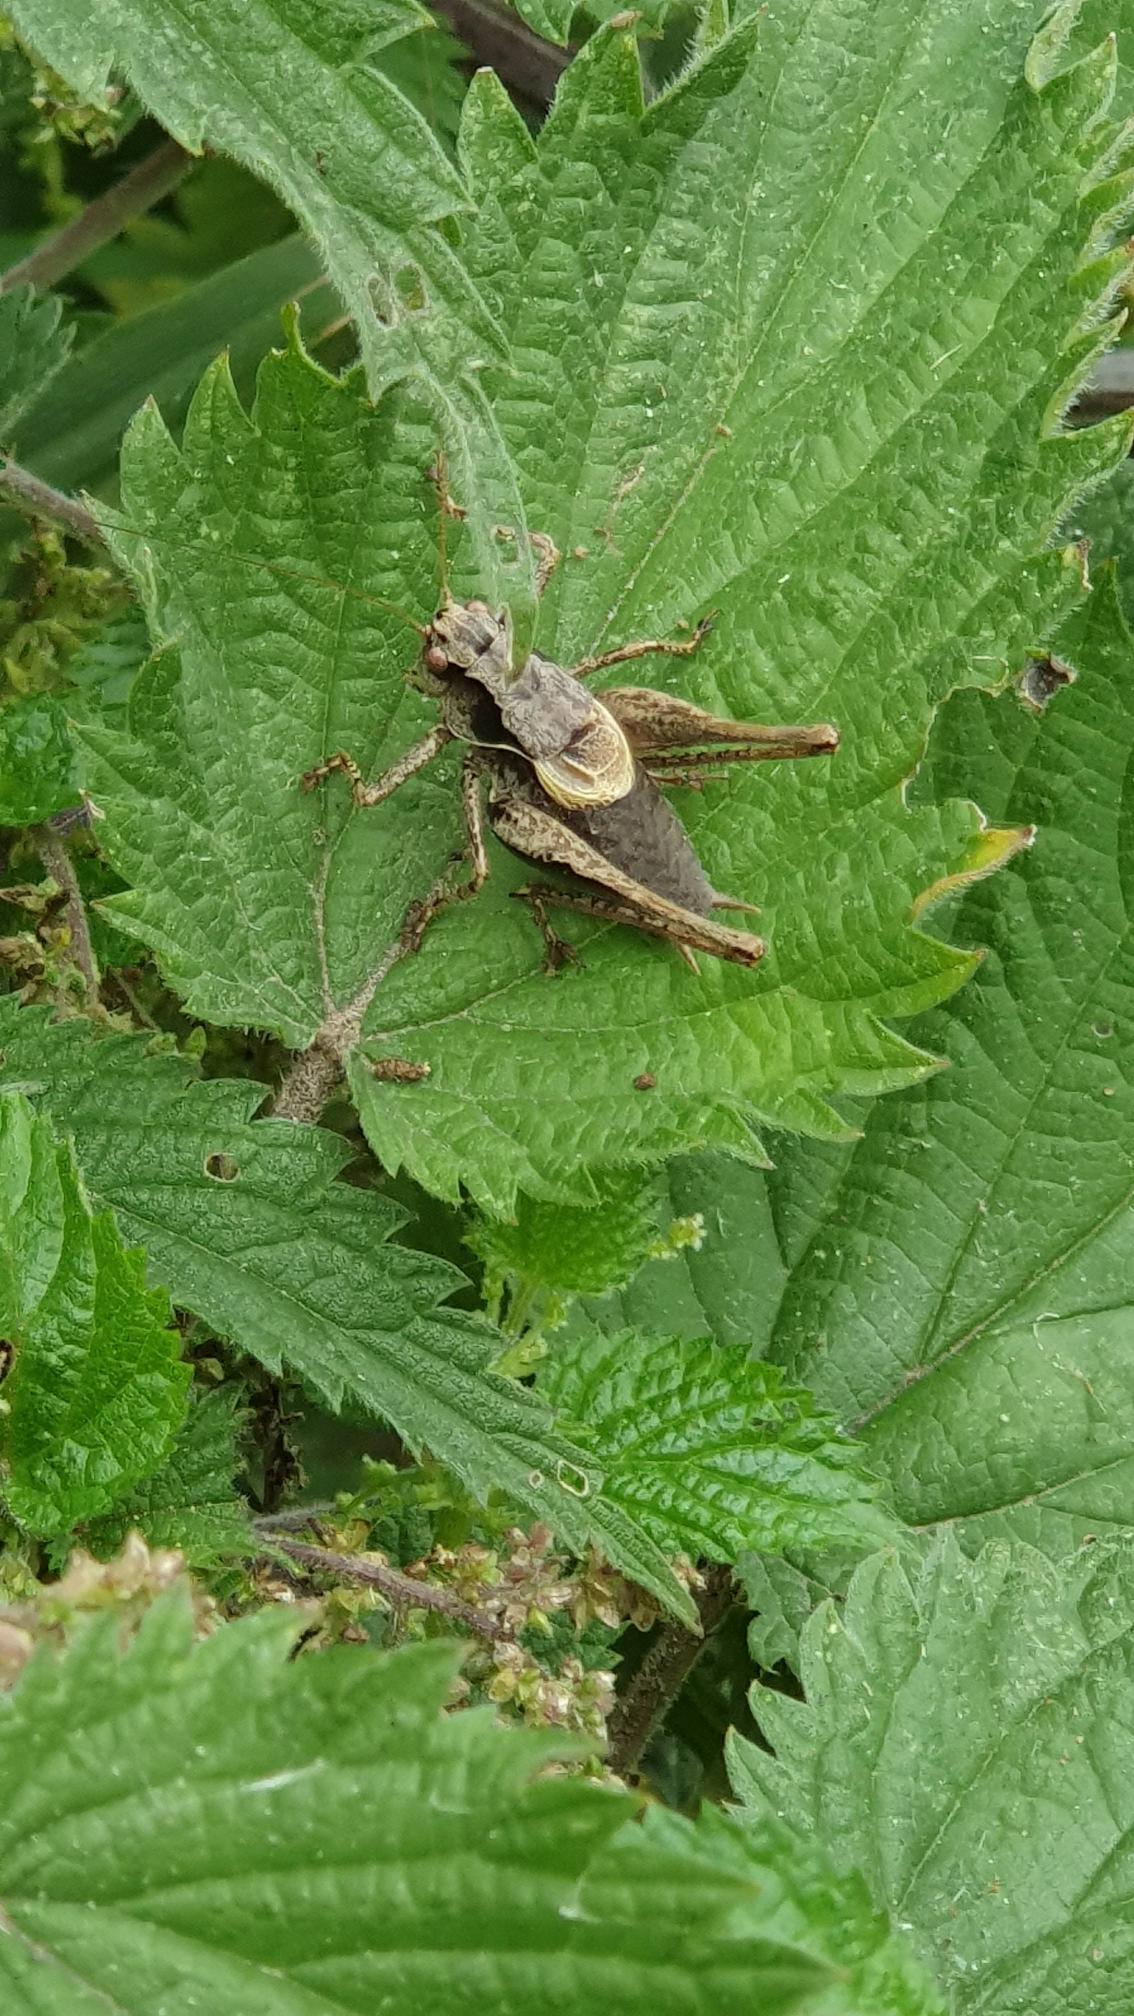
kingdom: Animalia
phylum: Arthropoda
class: Insecta
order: Orthoptera
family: Tettigoniidae
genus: Pholidoptera
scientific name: Pholidoptera griseoaptera
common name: Buskgræshoppe
